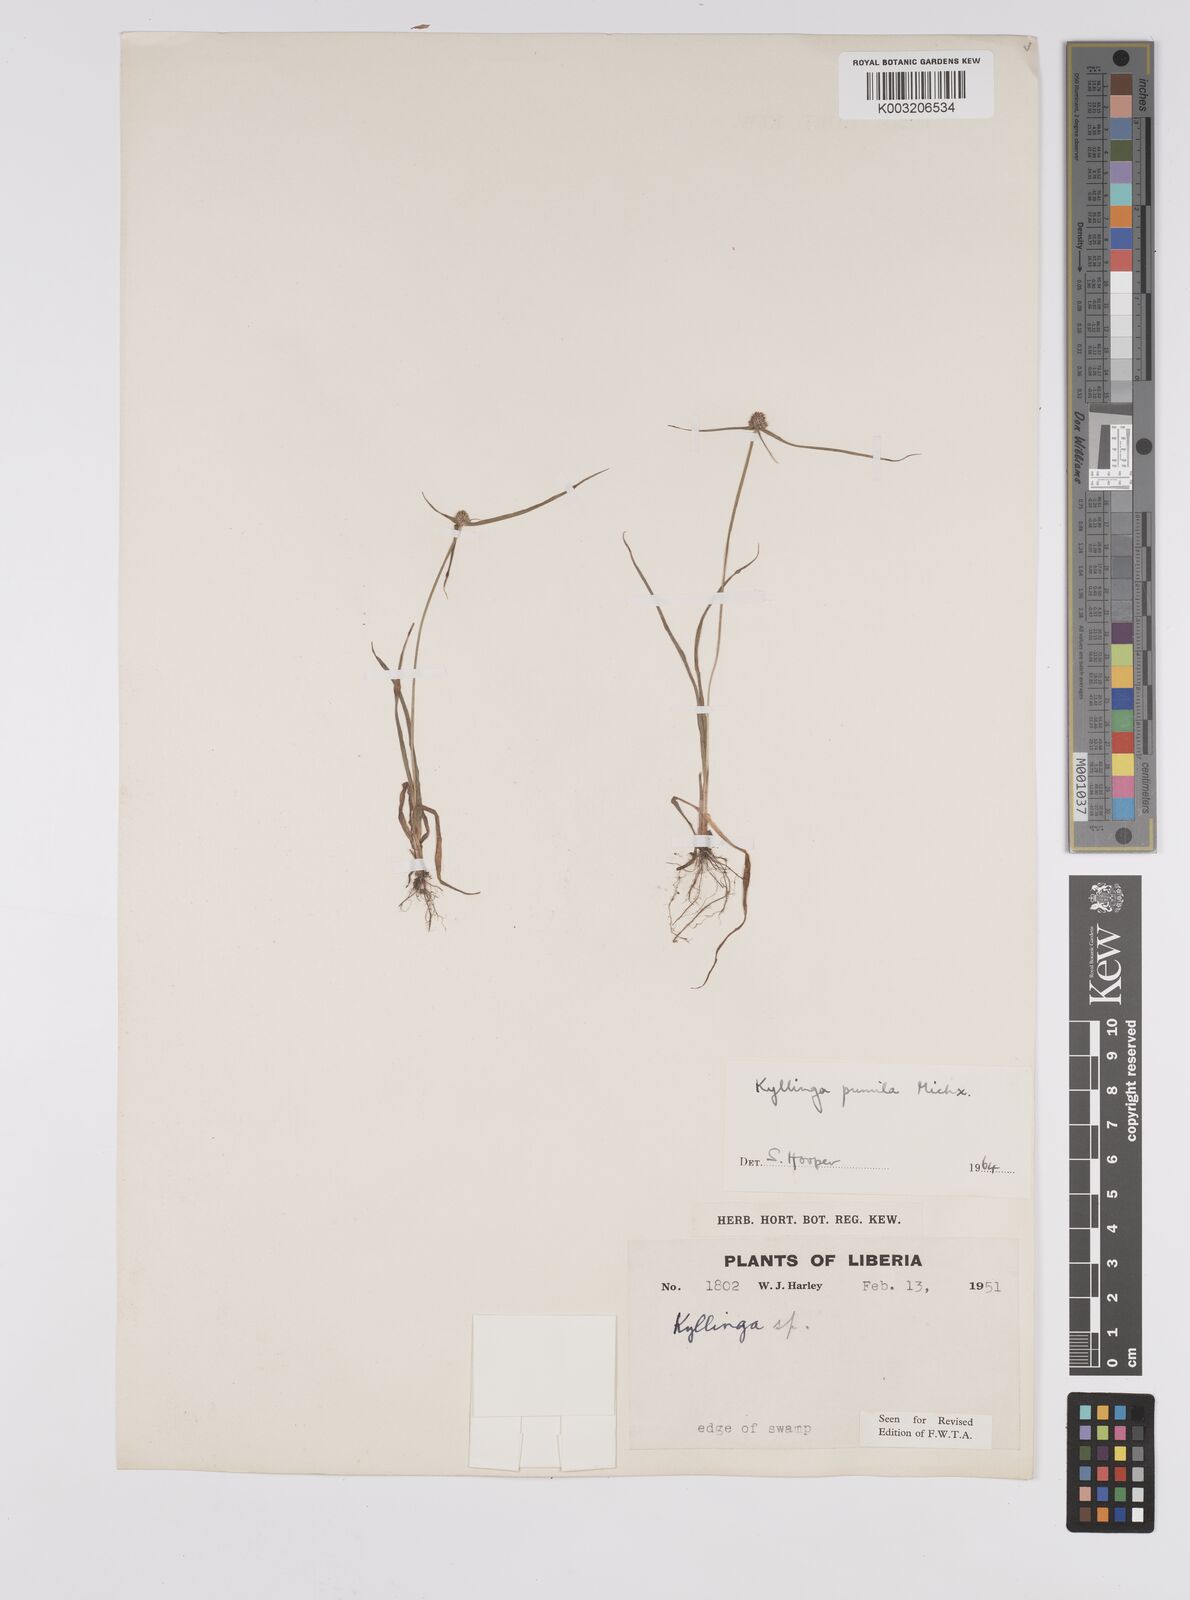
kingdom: Plantae
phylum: Tracheophyta
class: Liliopsida
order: Poales
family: Cyperaceae
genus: Cyperus
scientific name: Cyperus
